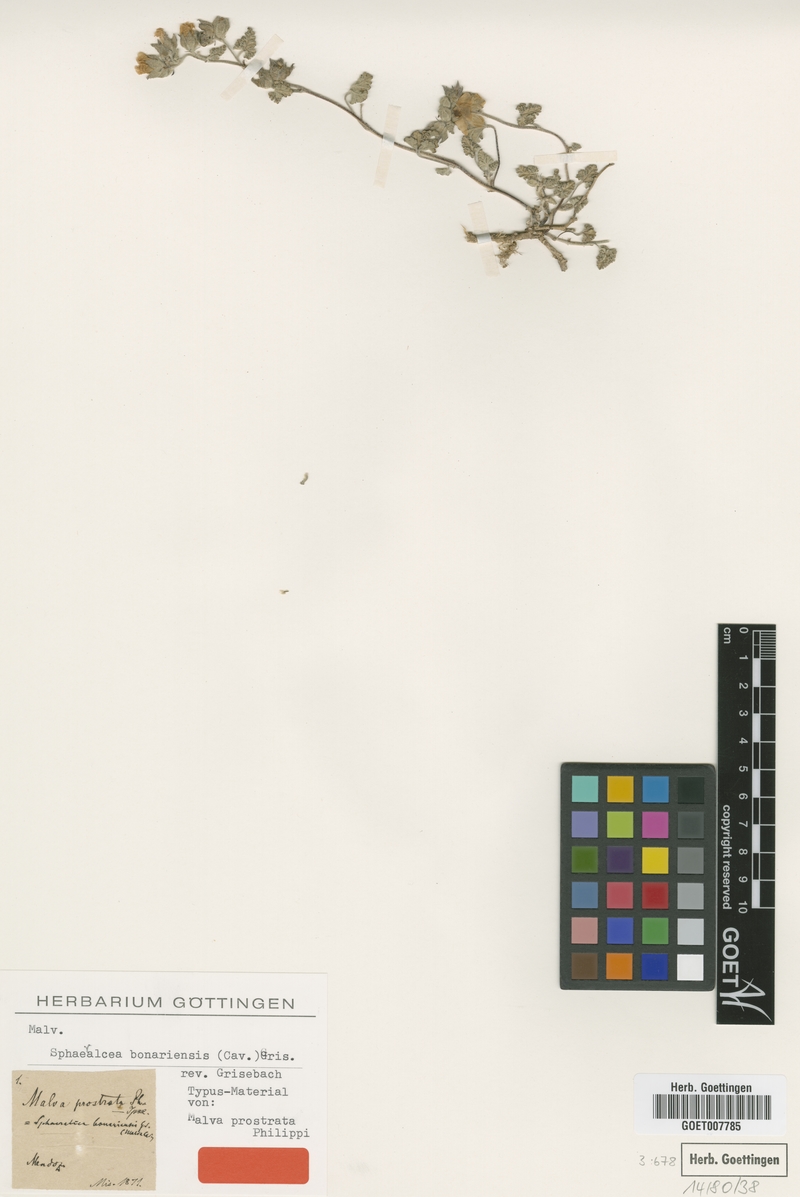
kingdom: Plantae
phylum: Tracheophyta
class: Magnoliopsida
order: Malvales
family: Malvaceae
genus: Sphaeralcea
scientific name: Sphaeralcea bonariensis
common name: Latin globemallow
